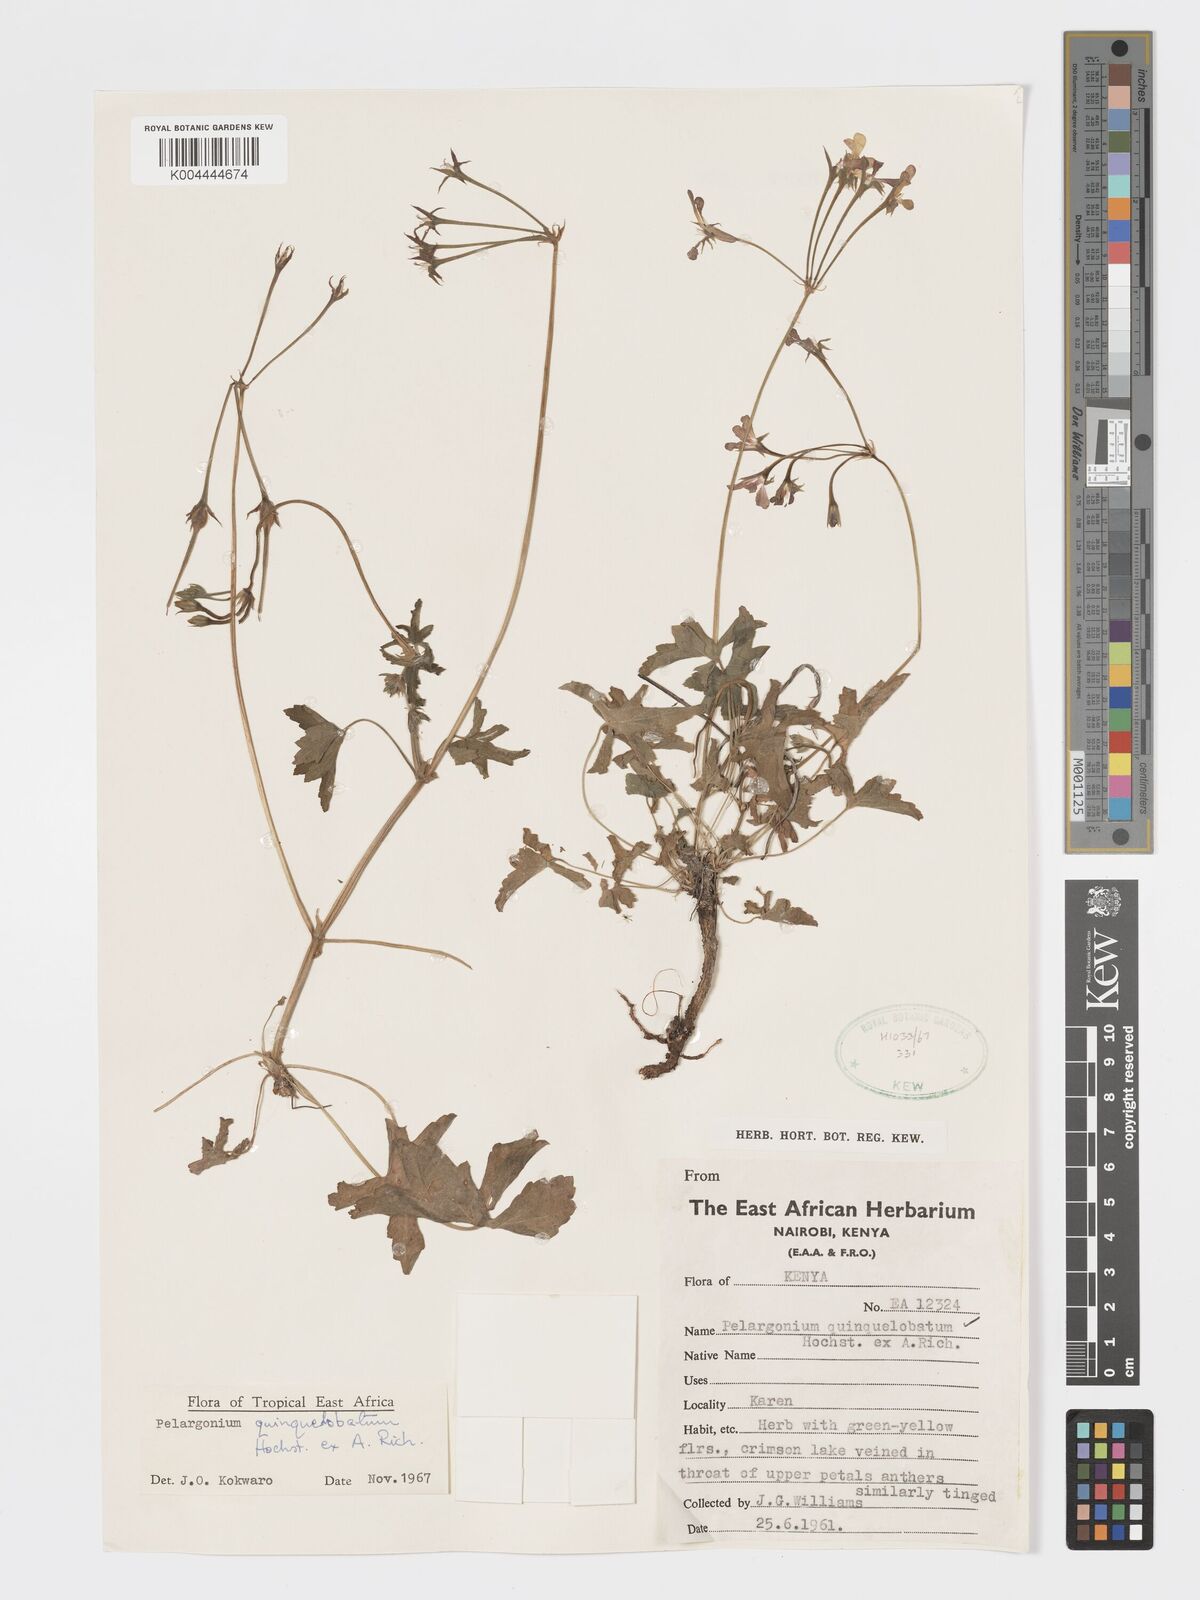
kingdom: Plantae
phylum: Tracheophyta
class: Magnoliopsida
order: Geraniales
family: Geraniaceae
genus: Pelargonium
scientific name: Pelargonium quinquelobatum
